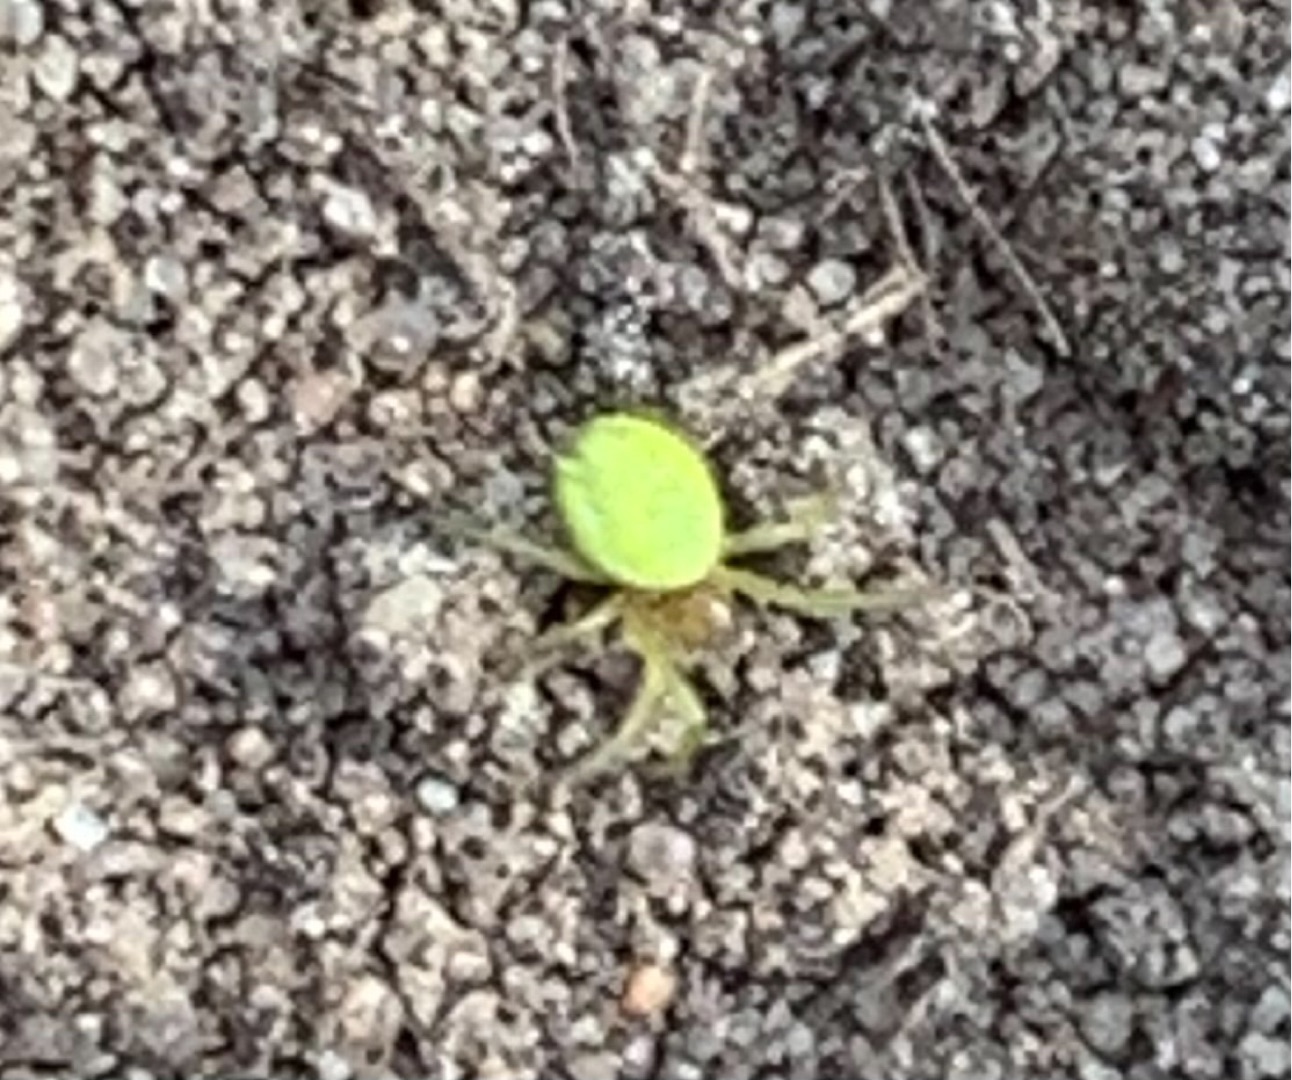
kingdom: Animalia
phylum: Arthropoda
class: Arachnida
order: Araneae
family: Araneidae
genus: Araniella
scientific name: Araniella
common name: Agurkeedderkopslægten
